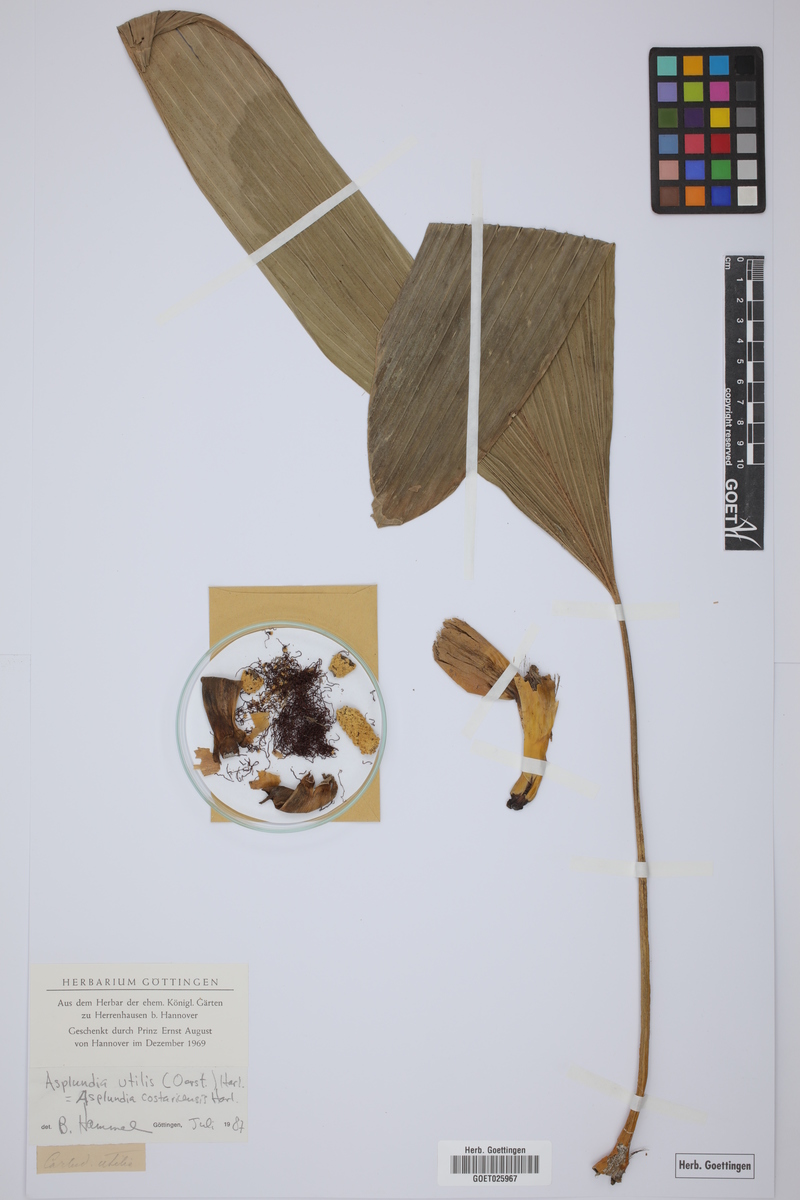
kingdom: Plantae
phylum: Tracheophyta
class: Liliopsida
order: Pandanales
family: Cyclanthaceae
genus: Asplundia
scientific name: Asplundia utilis
